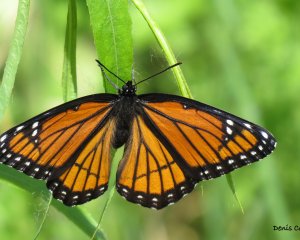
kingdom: Animalia
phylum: Arthropoda
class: Insecta
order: Lepidoptera
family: Nymphalidae
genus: Limenitis
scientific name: Limenitis archippus
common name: Viceroy
